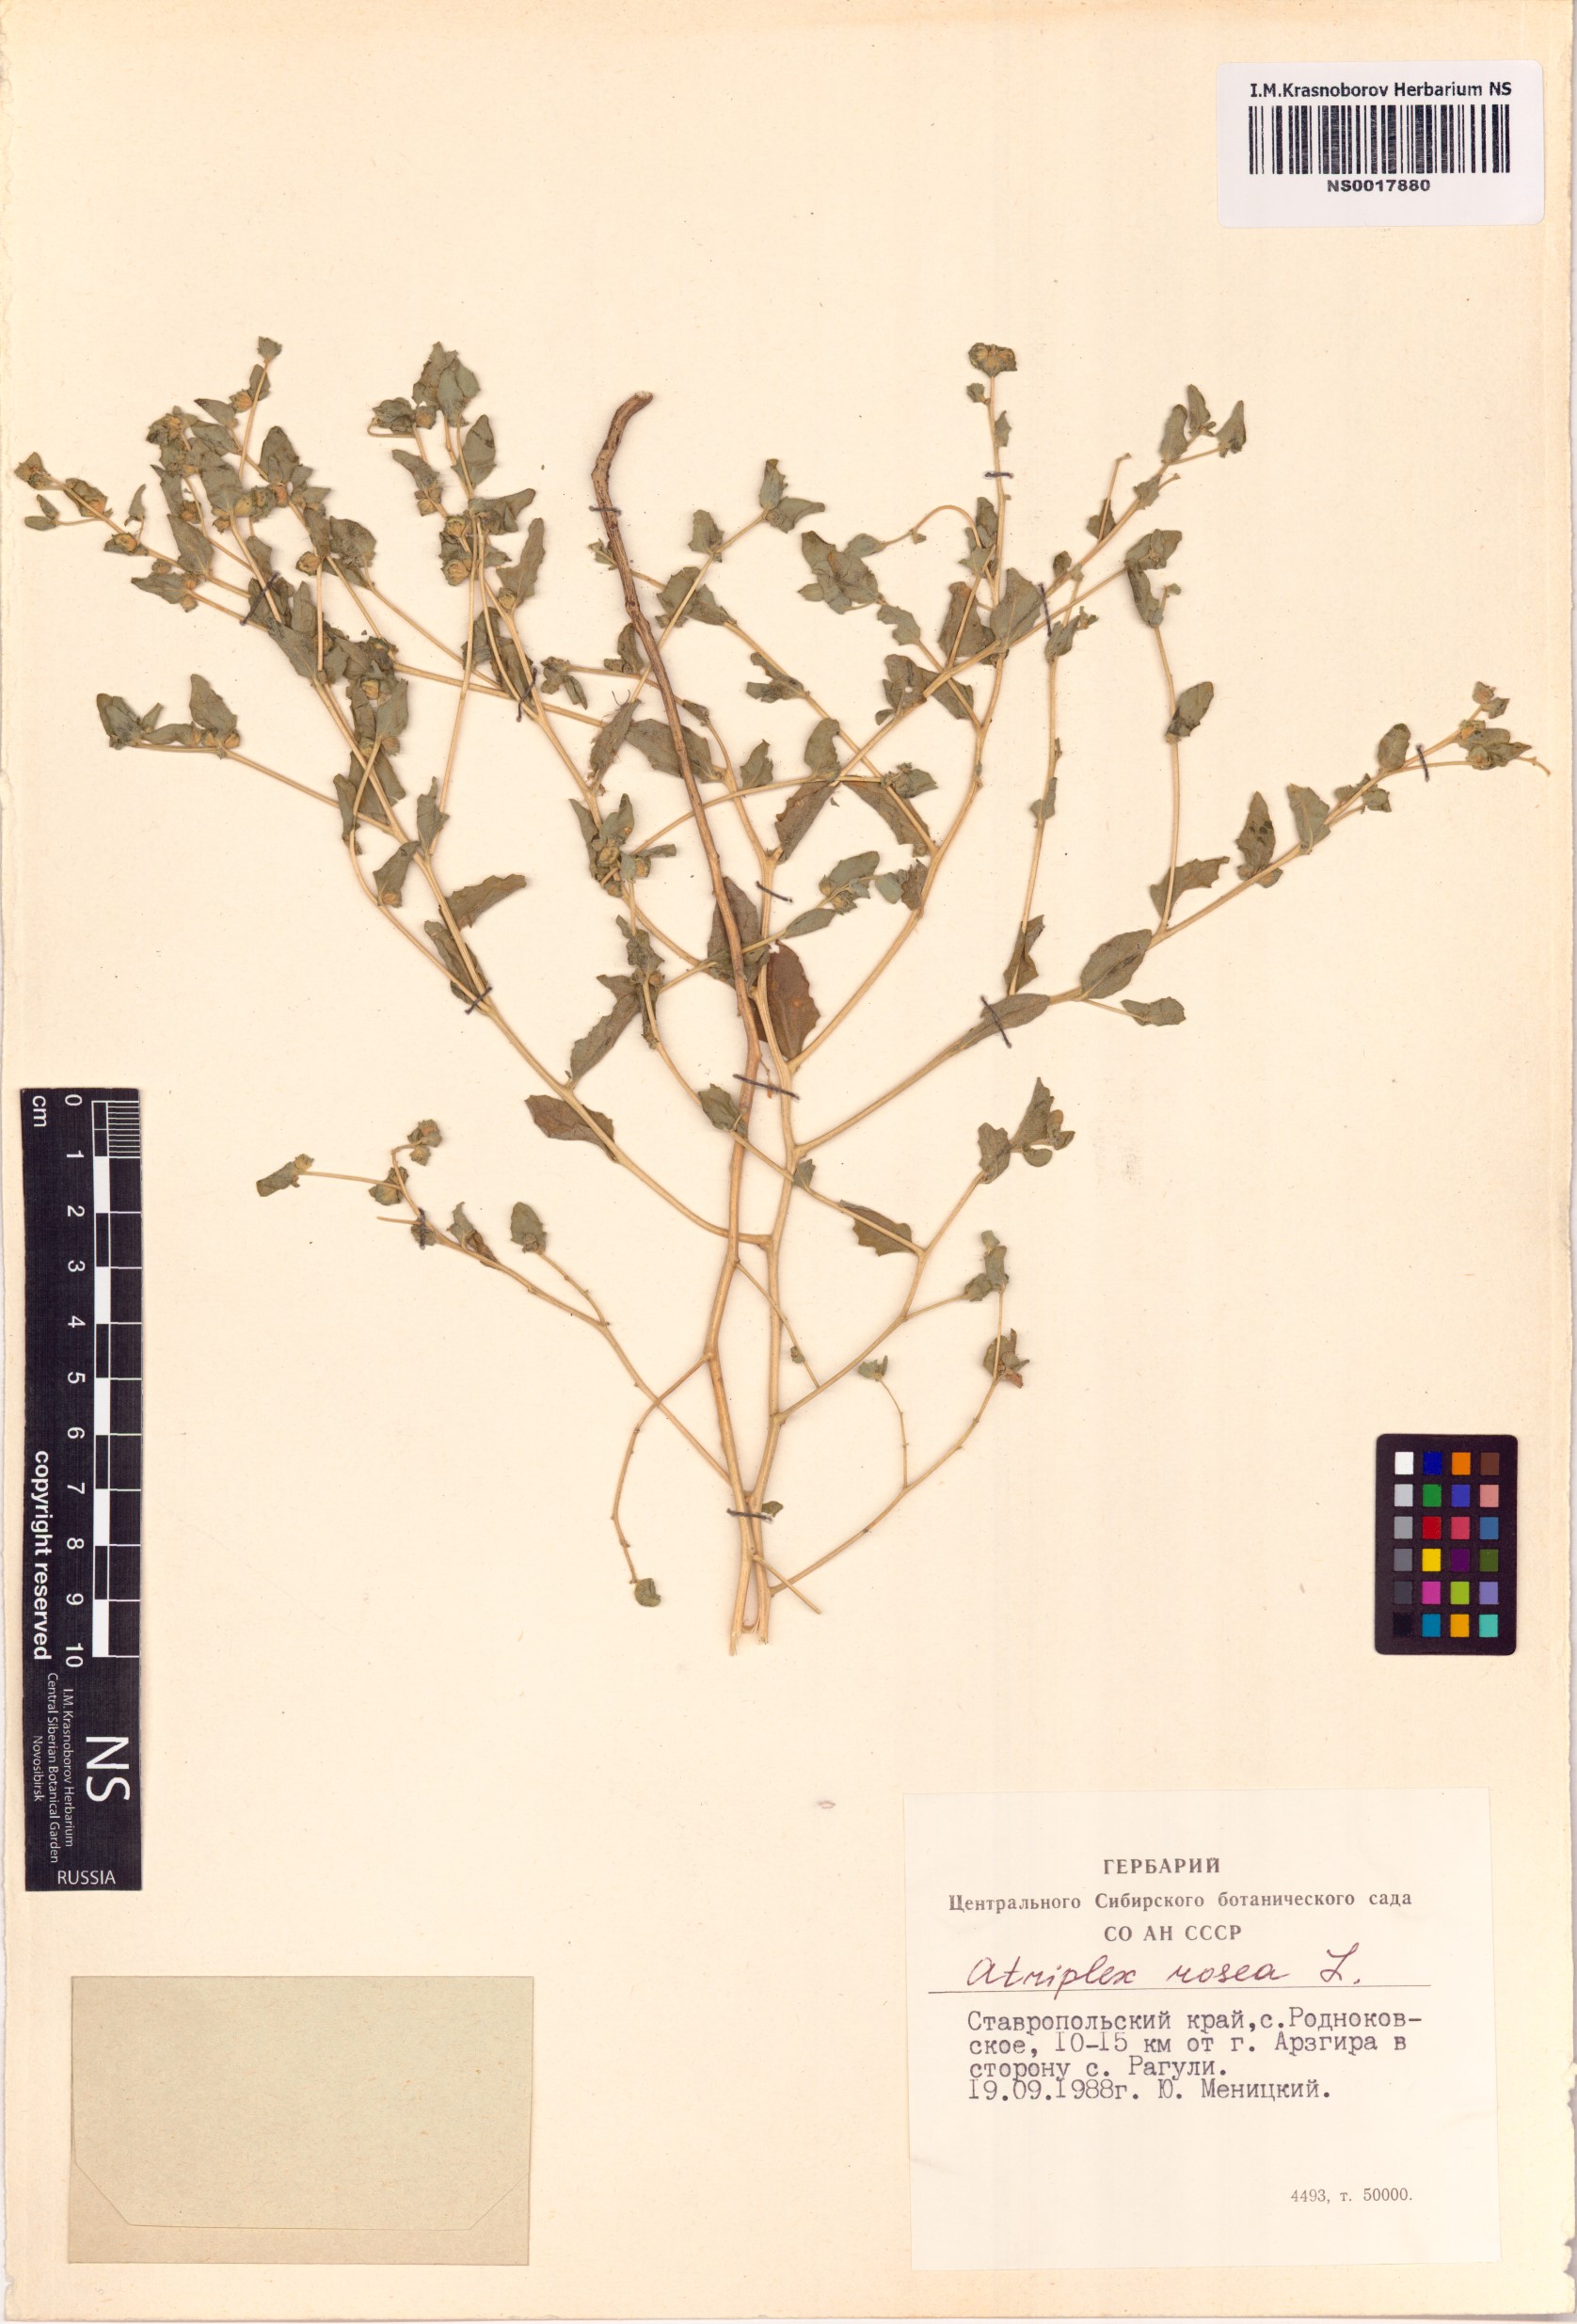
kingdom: Plantae
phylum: Tracheophyta
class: Magnoliopsida
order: Caryophyllales
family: Amaranthaceae
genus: Atriplex
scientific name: Atriplex rosea
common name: Tumbling saltweed
